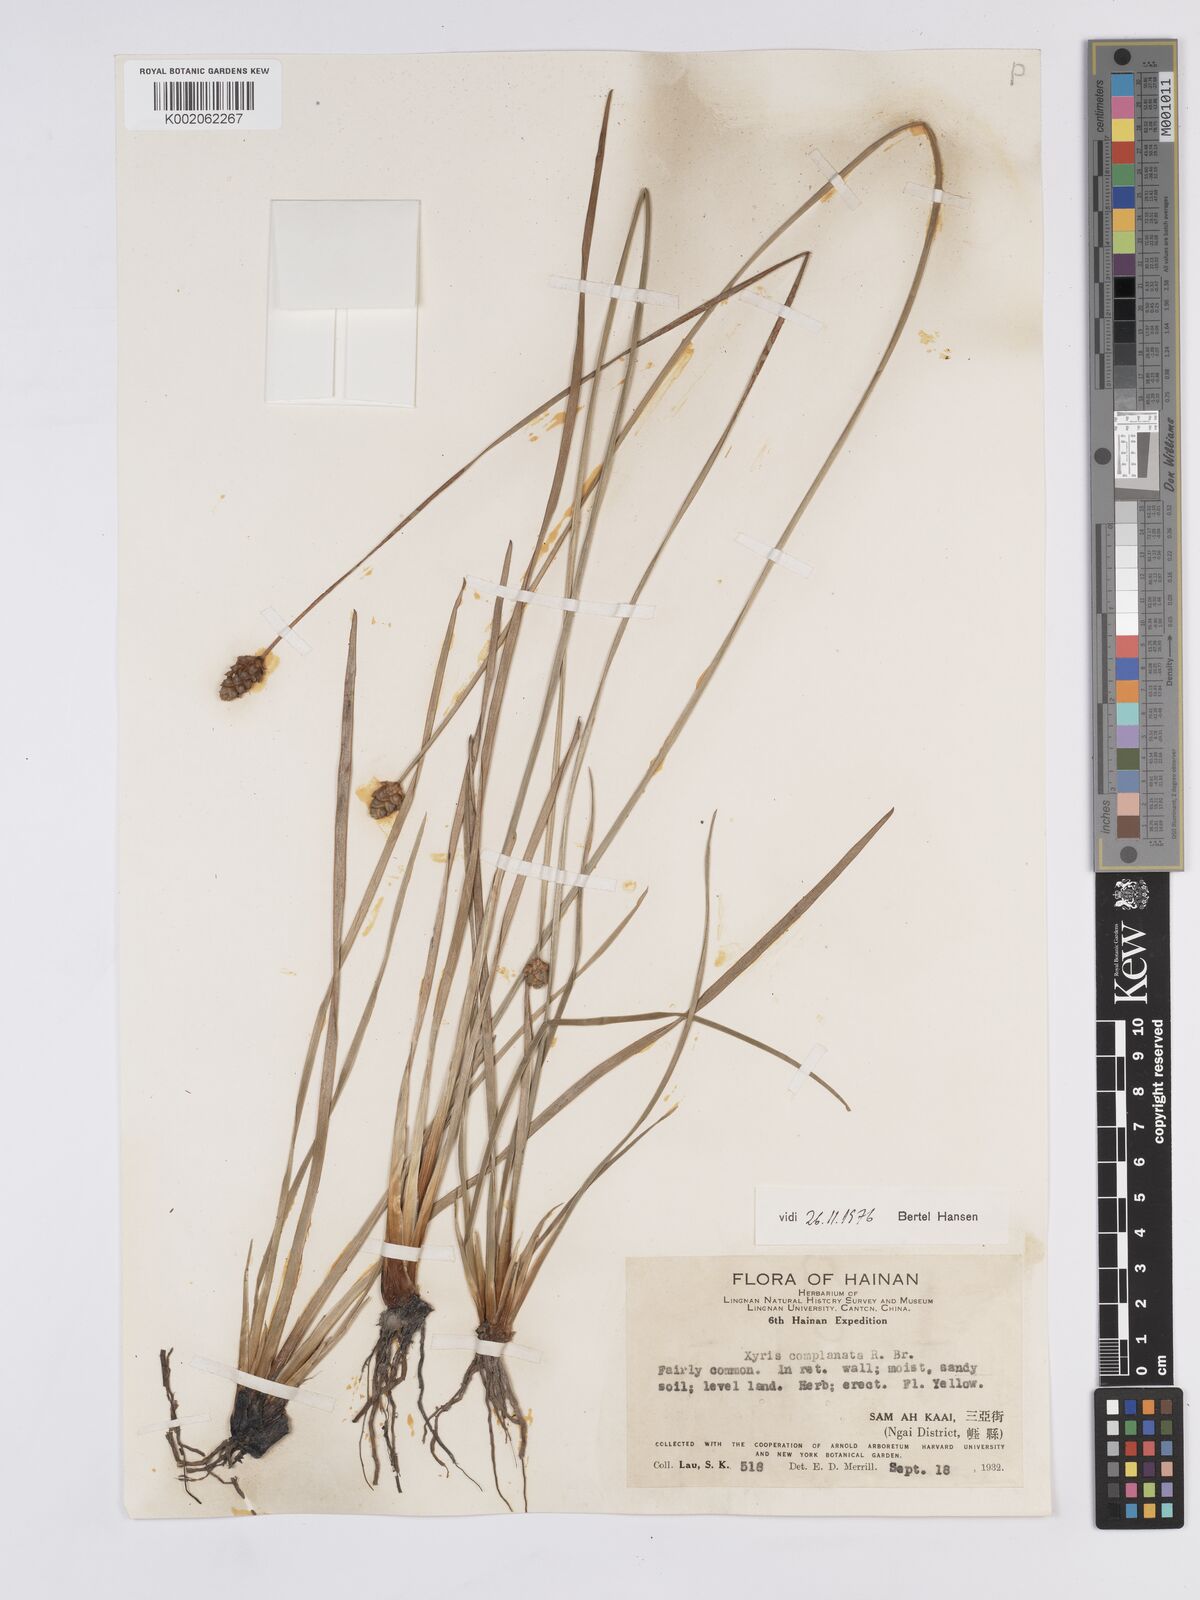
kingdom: Plantae
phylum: Tracheophyta
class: Liliopsida
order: Poales
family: Xyridaceae
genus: Xyris
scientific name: Xyris complanata
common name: Hawai'i yelloweyed grass
